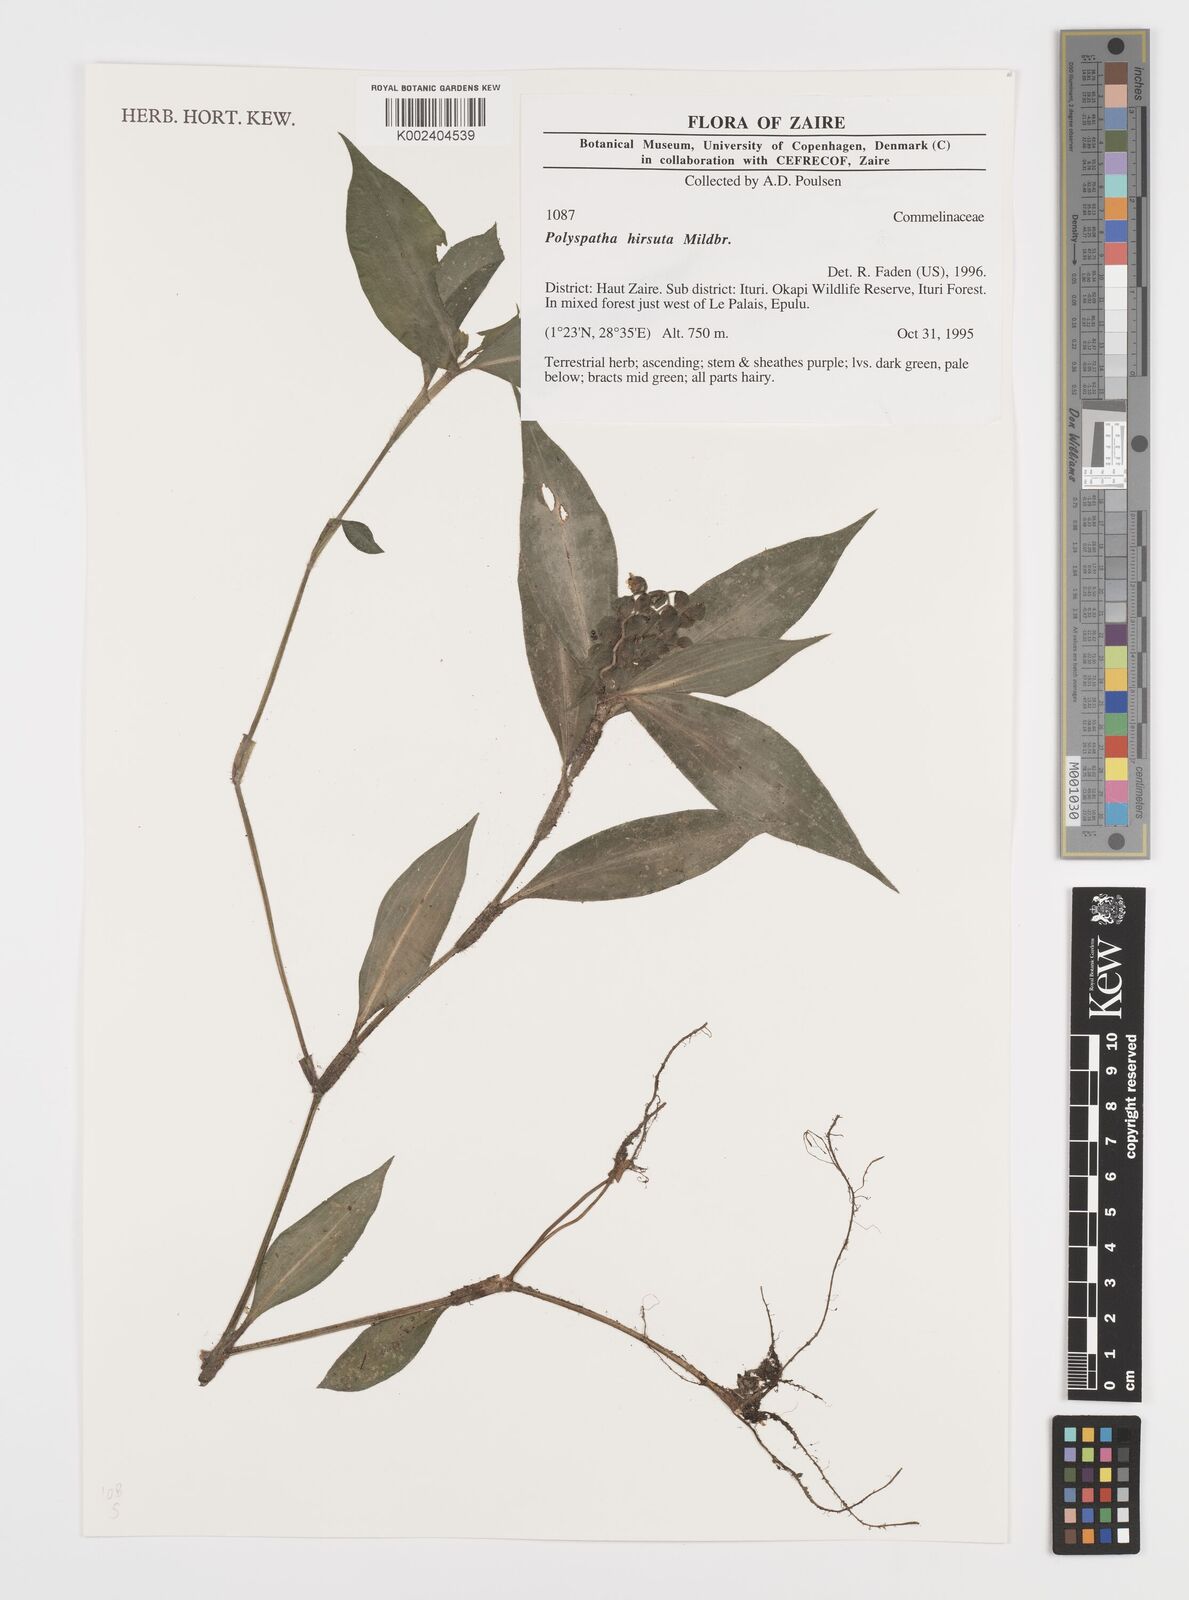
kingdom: Plantae
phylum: Tracheophyta
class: Liliopsida
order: Commelinales
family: Commelinaceae
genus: Polyspatha
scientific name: Polyspatha hirsuta
